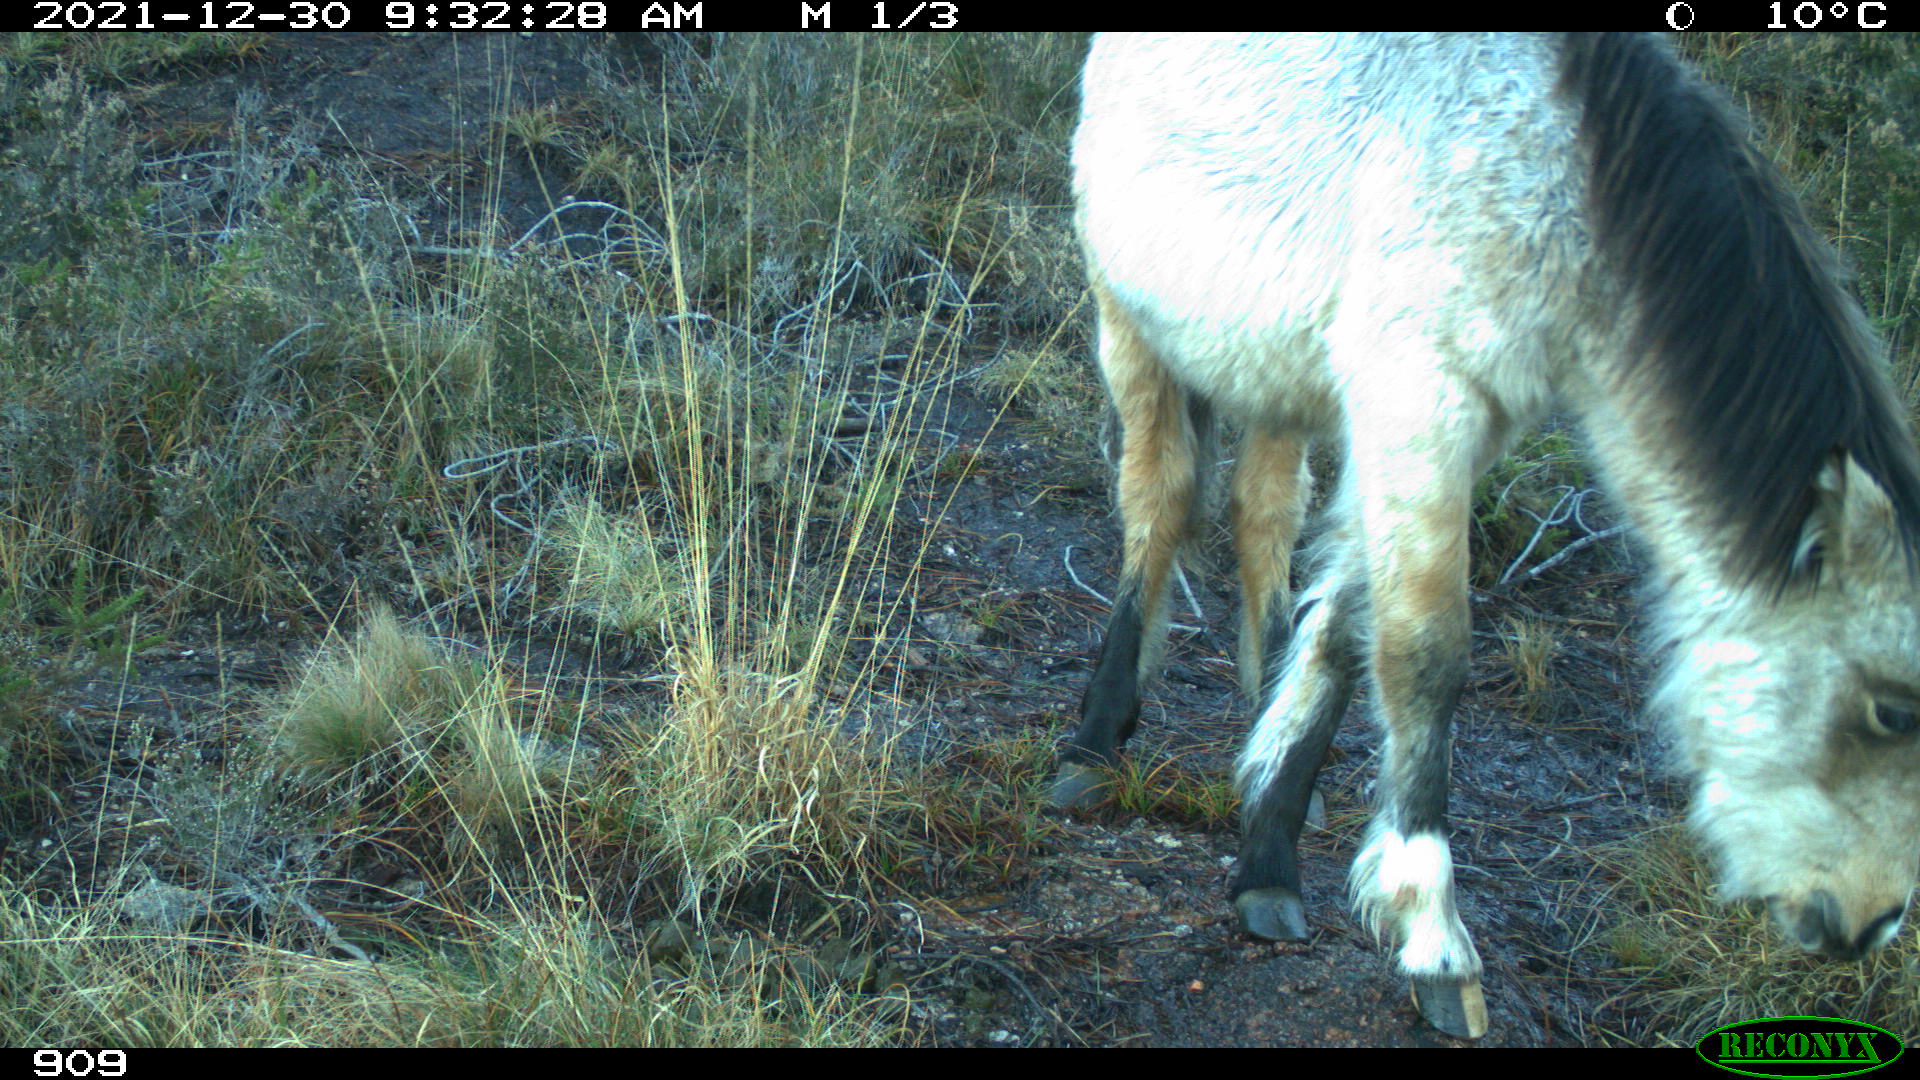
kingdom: Animalia
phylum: Chordata
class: Mammalia
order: Perissodactyla
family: Equidae
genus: Equus
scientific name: Equus caballus
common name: Horse
